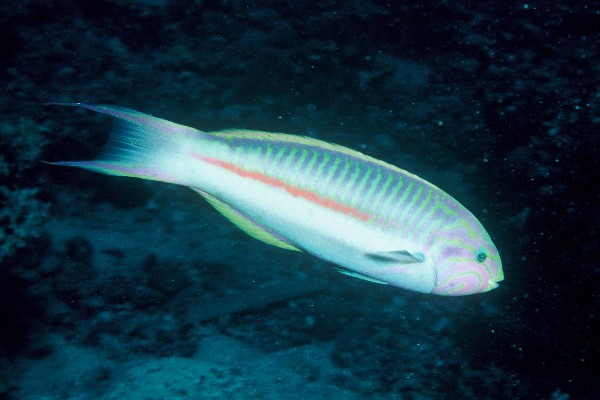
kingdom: Animalia
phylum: Chordata
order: Perciformes
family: Labridae
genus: Thalassoma
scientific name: Thalassoma rueppellii
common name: Klunzinger's wrasse
